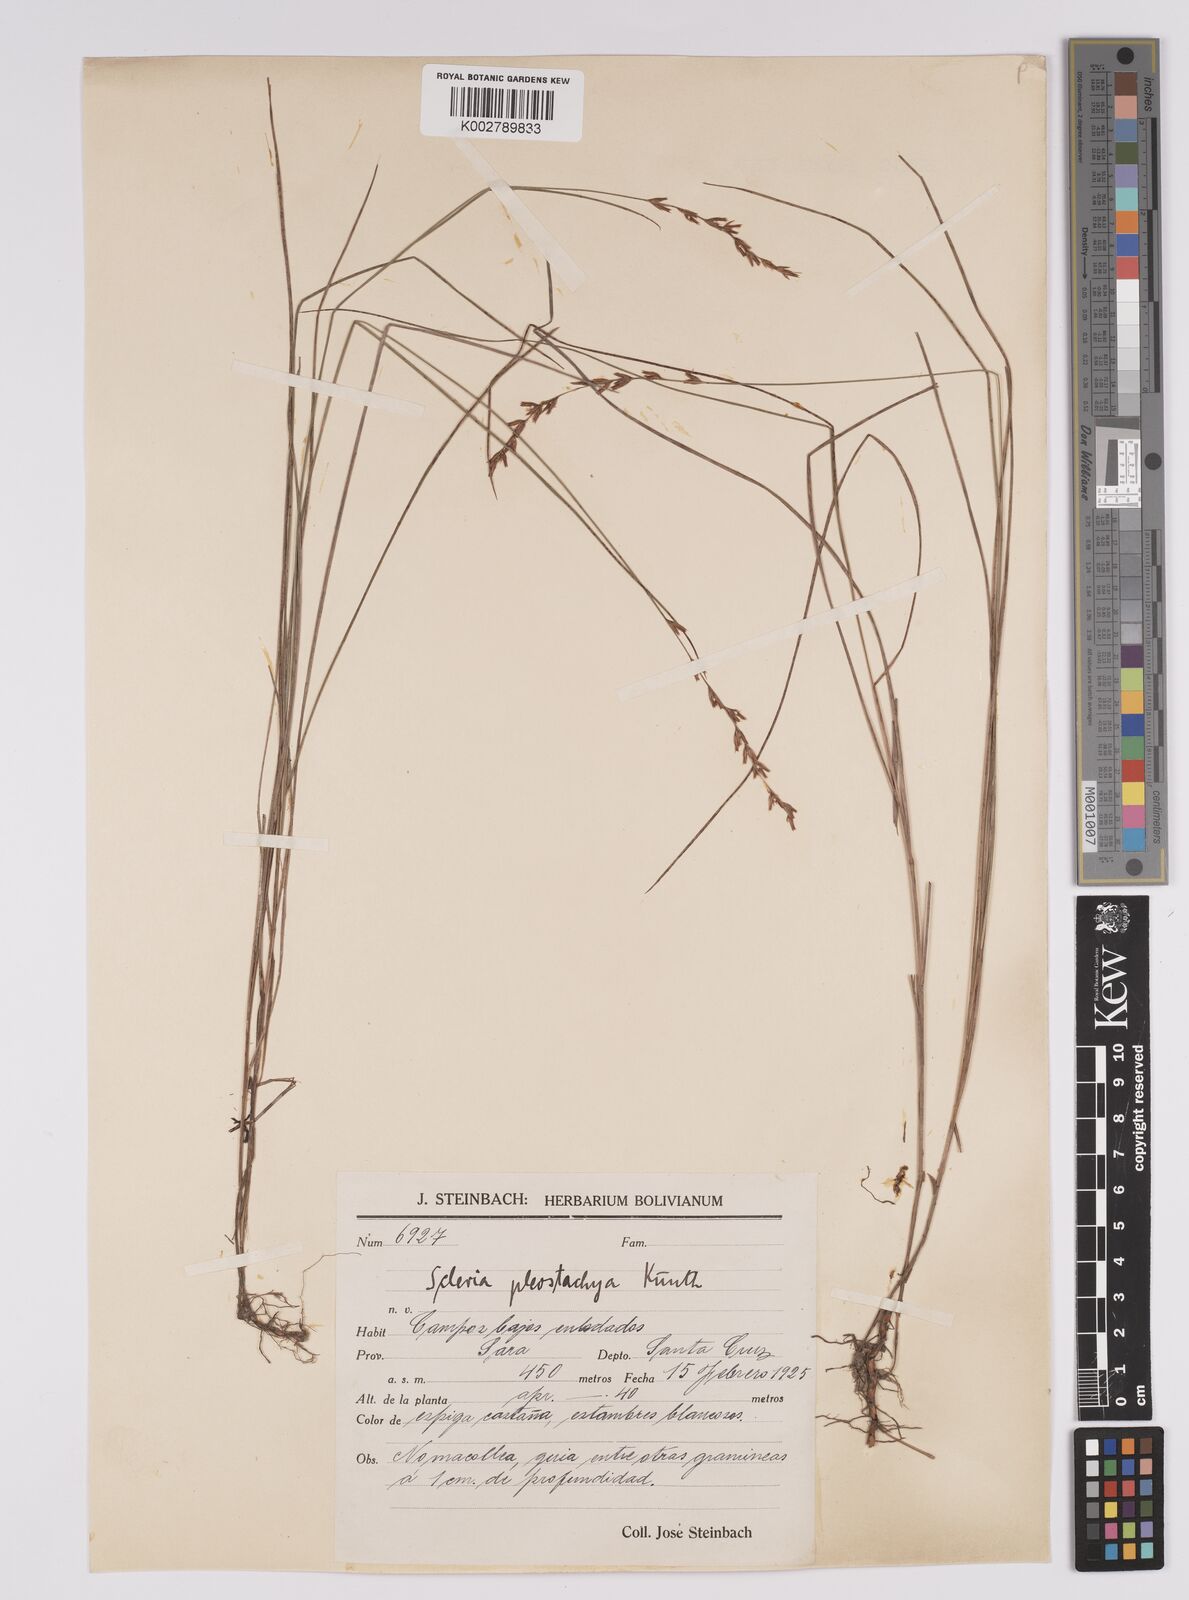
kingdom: Plantae
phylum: Tracheophyta
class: Liliopsida
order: Poales
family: Cyperaceae
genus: Scleria
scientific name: Scleria spicata
